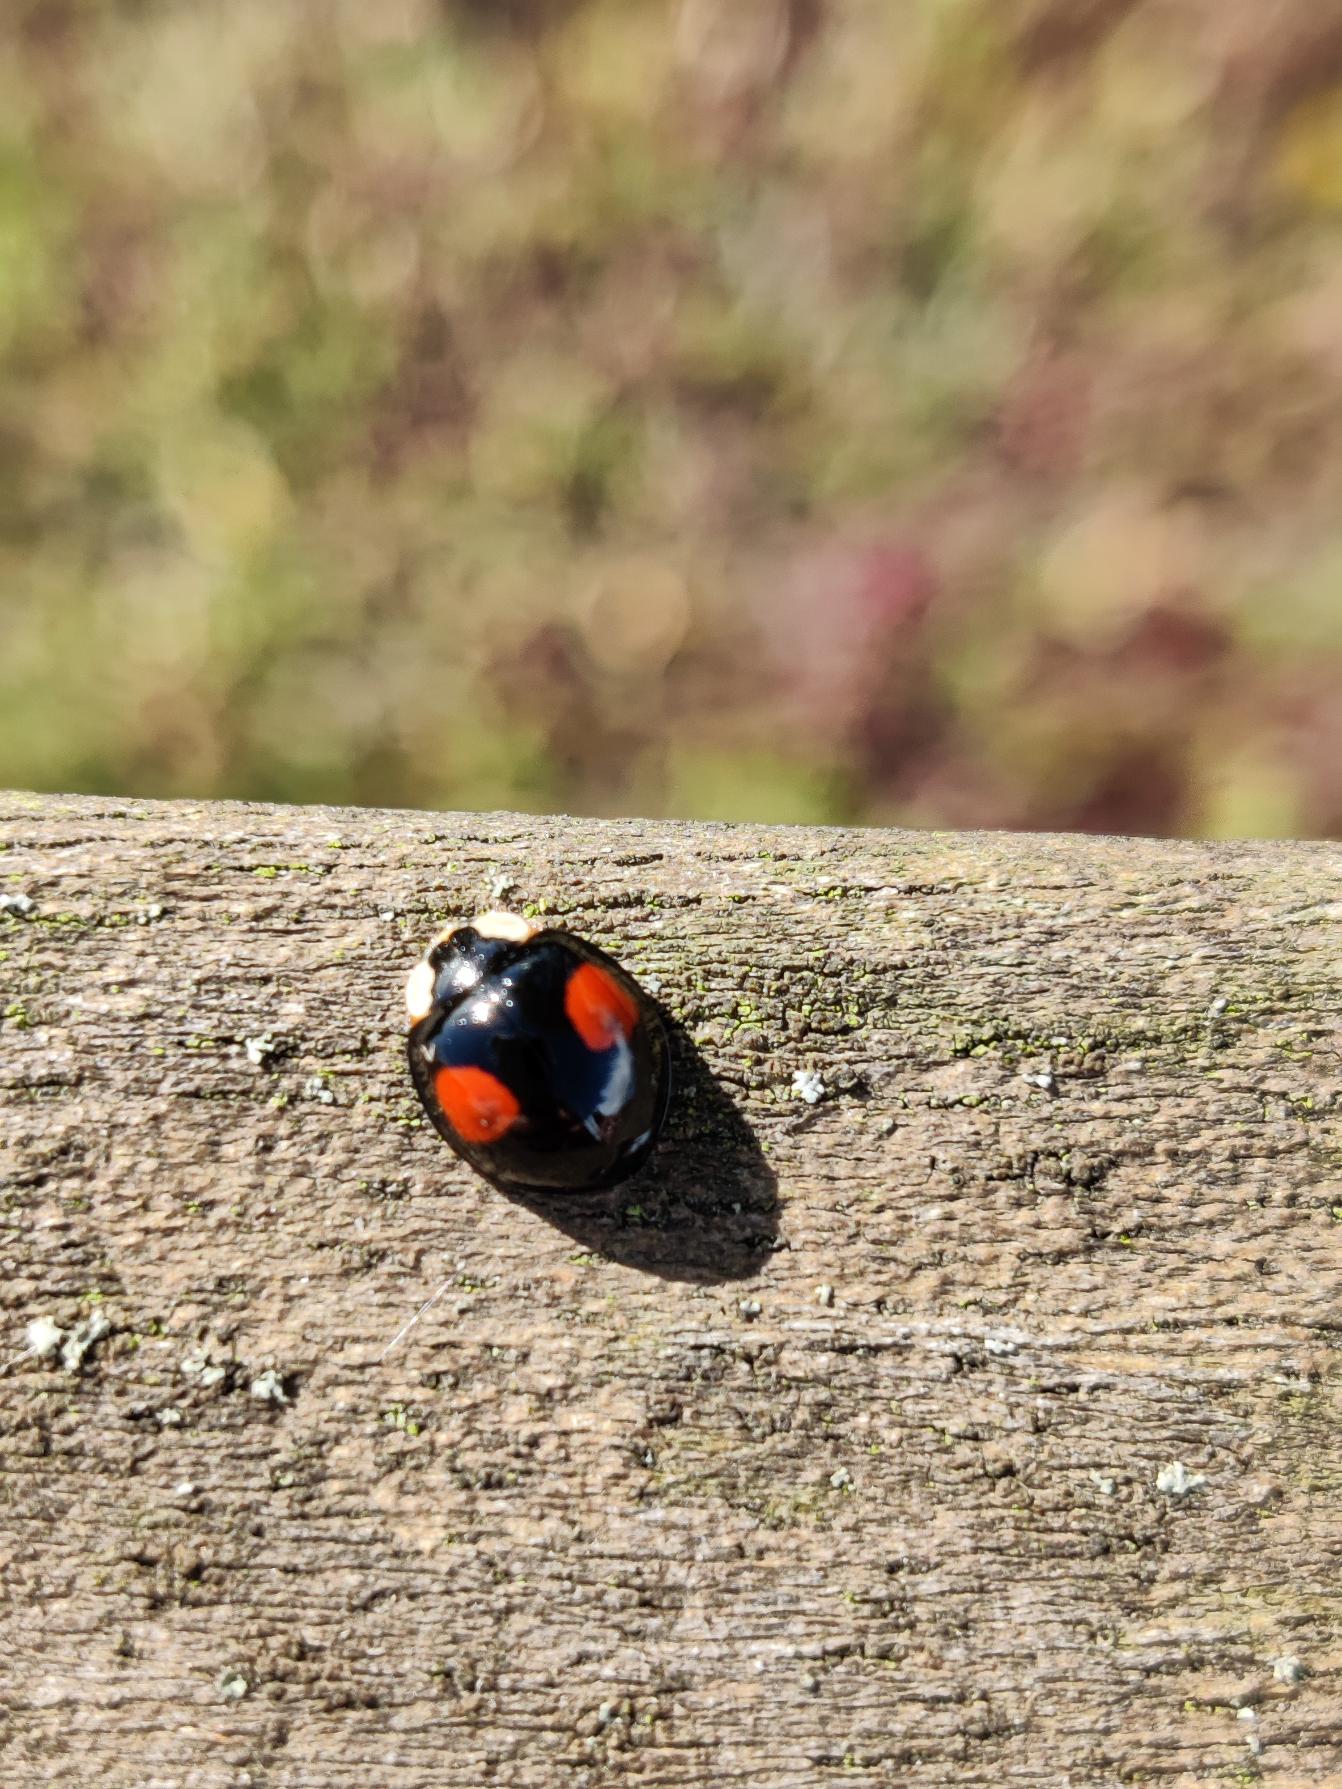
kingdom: Animalia
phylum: Arthropoda
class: Insecta
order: Coleoptera
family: Coccinellidae
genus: Harmonia
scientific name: Harmonia axyridis
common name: Harlekinmariehøne
